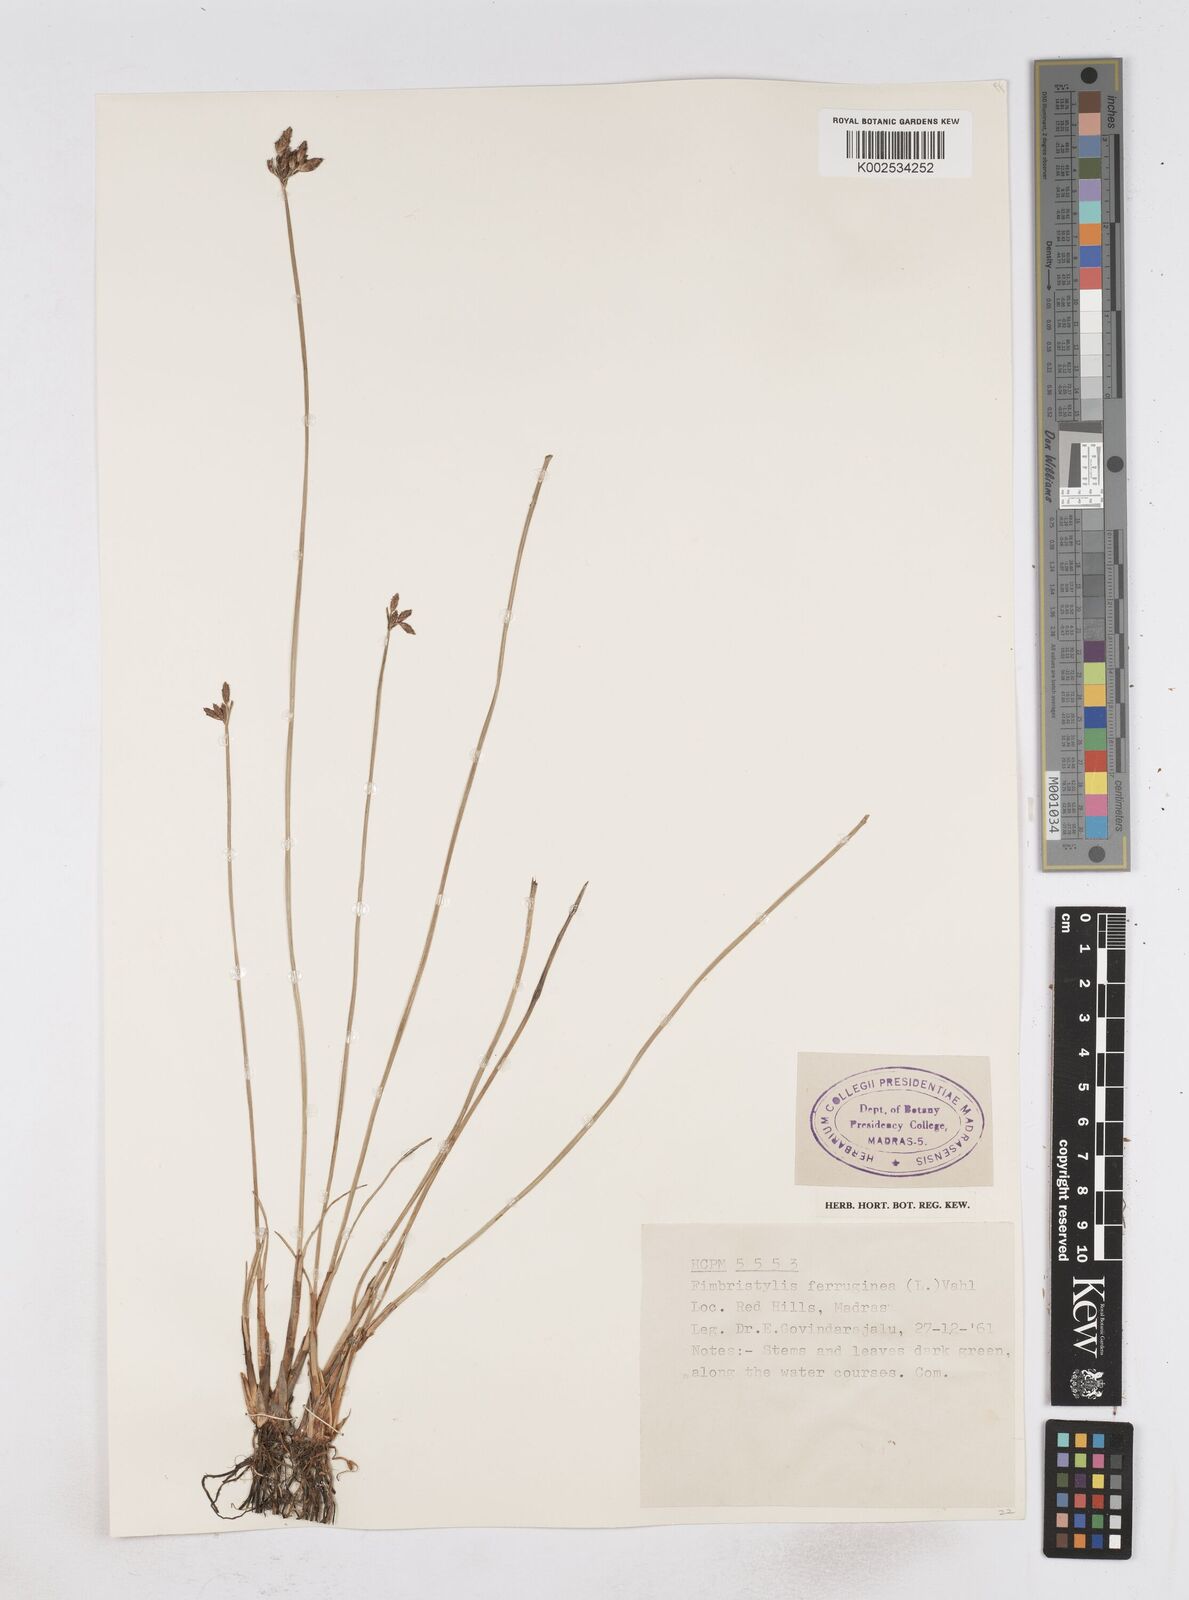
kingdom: Plantae
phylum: Tracheophyta
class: Liliopsida
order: Poales
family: Cyperaceae
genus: Fimbristylis
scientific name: Fimbristylis ferruginea
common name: West indian fimbry
